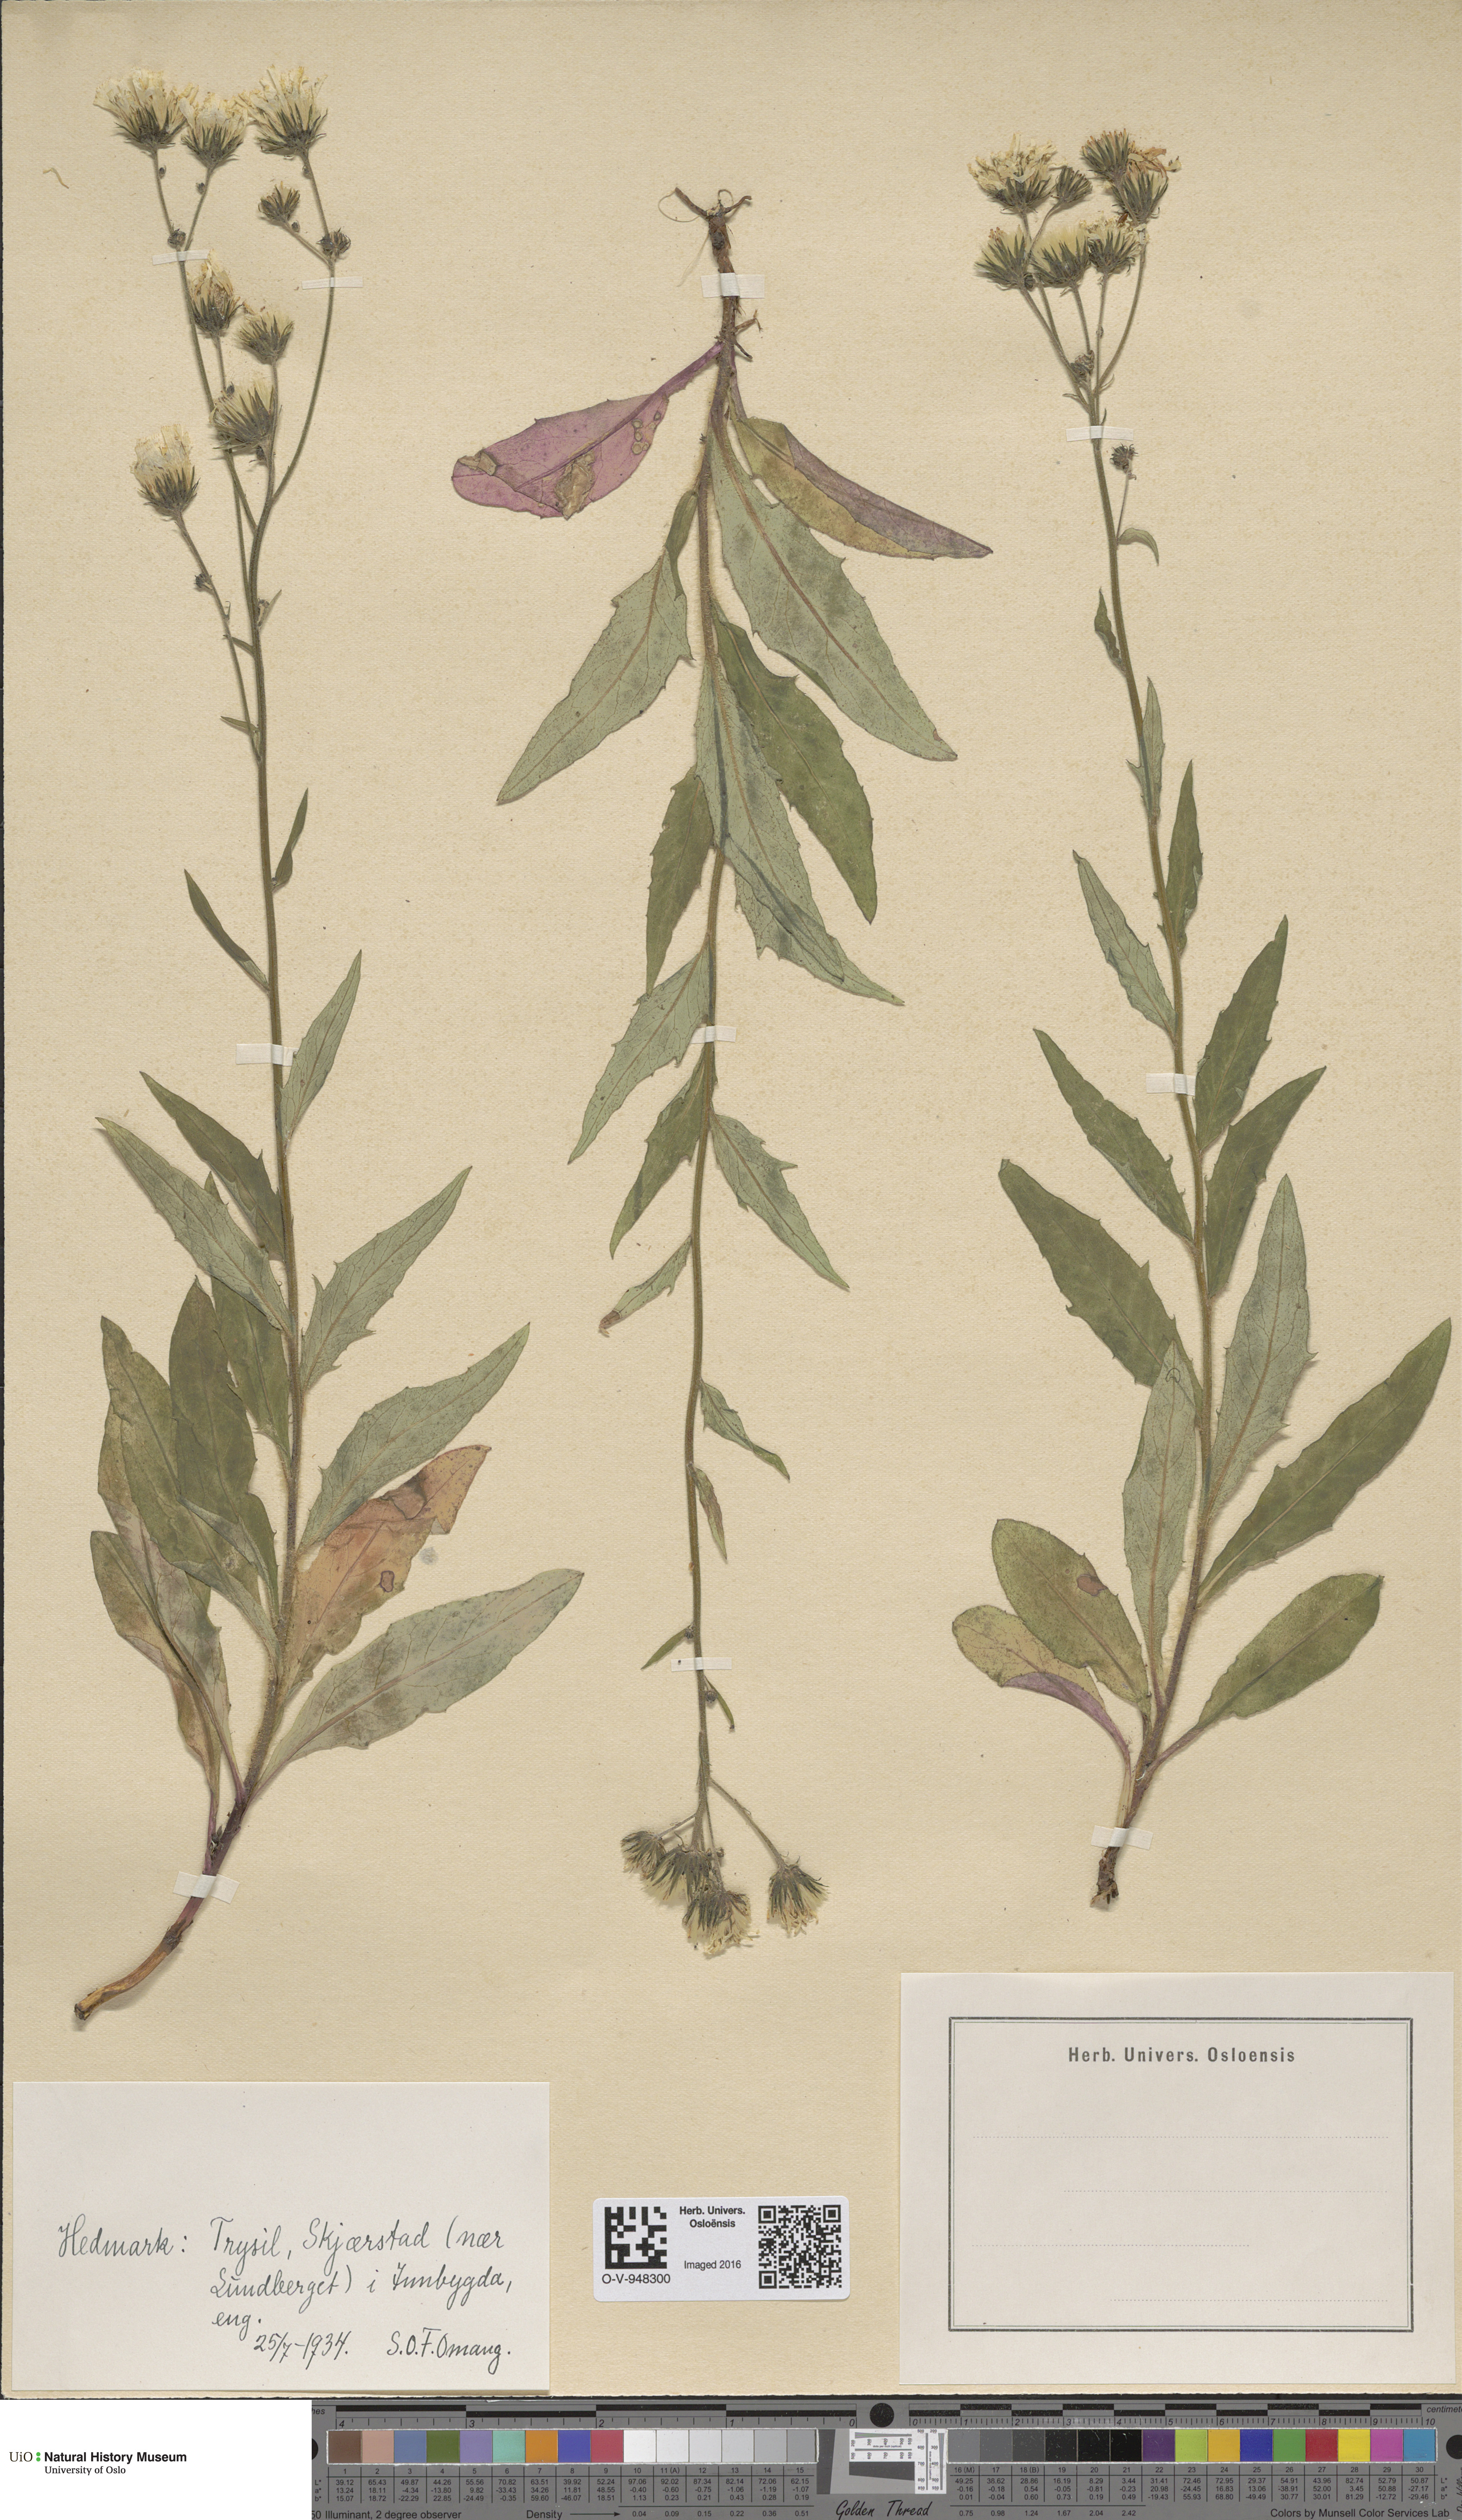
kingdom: Plantae
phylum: Tracheophyta
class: Magnoliopsida
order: Asterales
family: Asteraceae
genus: Hieracium
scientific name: Hieracium
